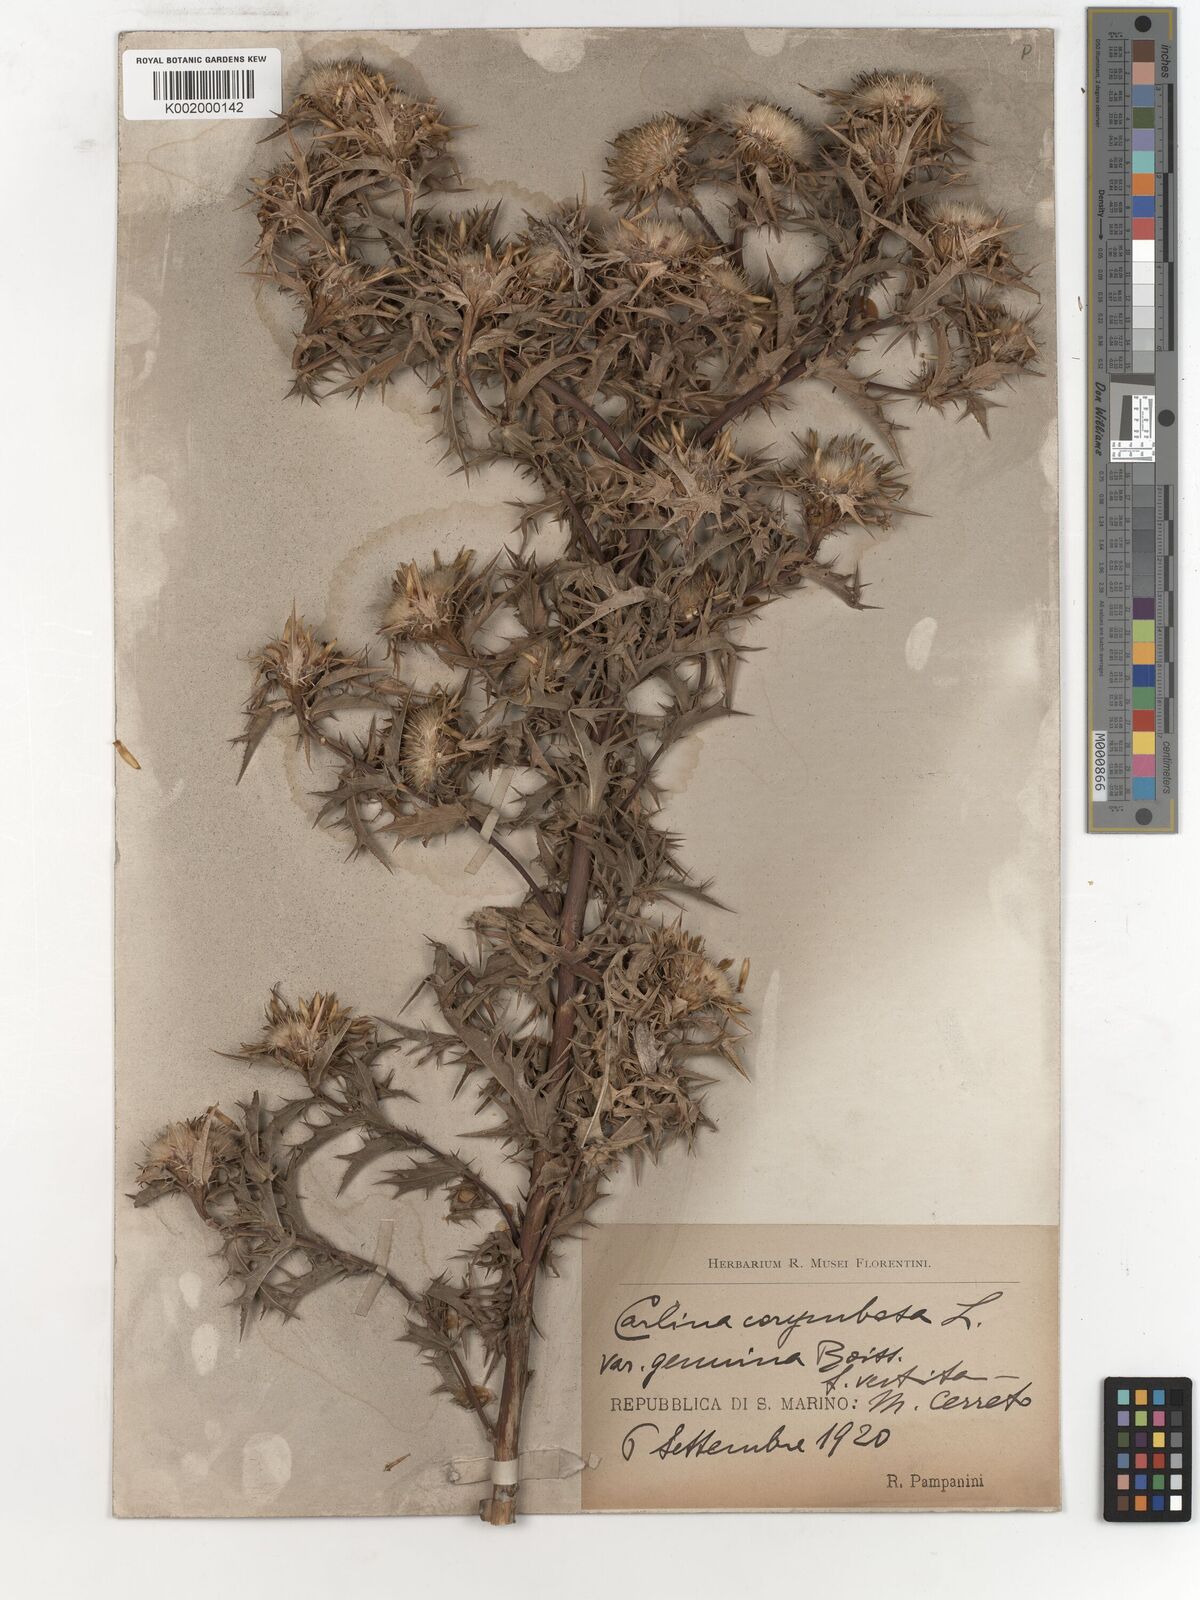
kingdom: Plantae
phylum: Tracheophyta
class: Magnoliopsida
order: Asterales
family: Asteraceae
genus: Carlina
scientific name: Carlina corymbosa
